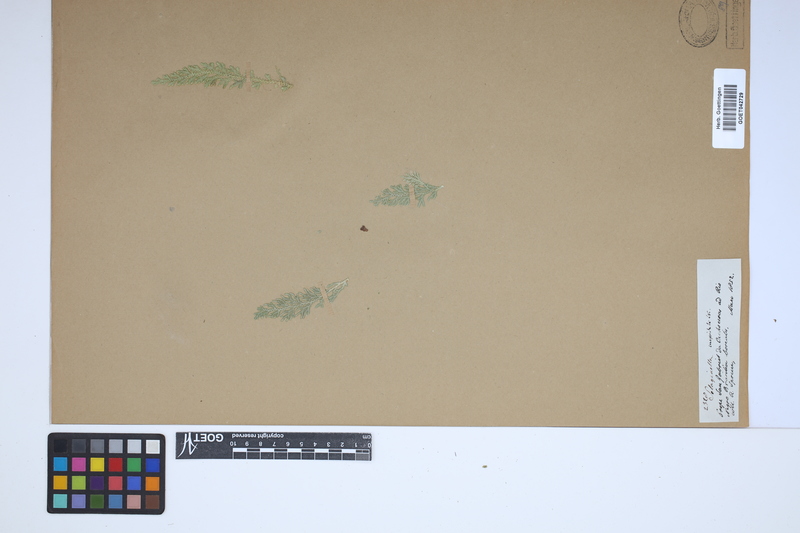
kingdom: Plantae
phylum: Tracheophyta
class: Lycopodiopsida
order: Selaginellales
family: Selaginellaceae
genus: Selaginella
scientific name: Selaginella pallescens
